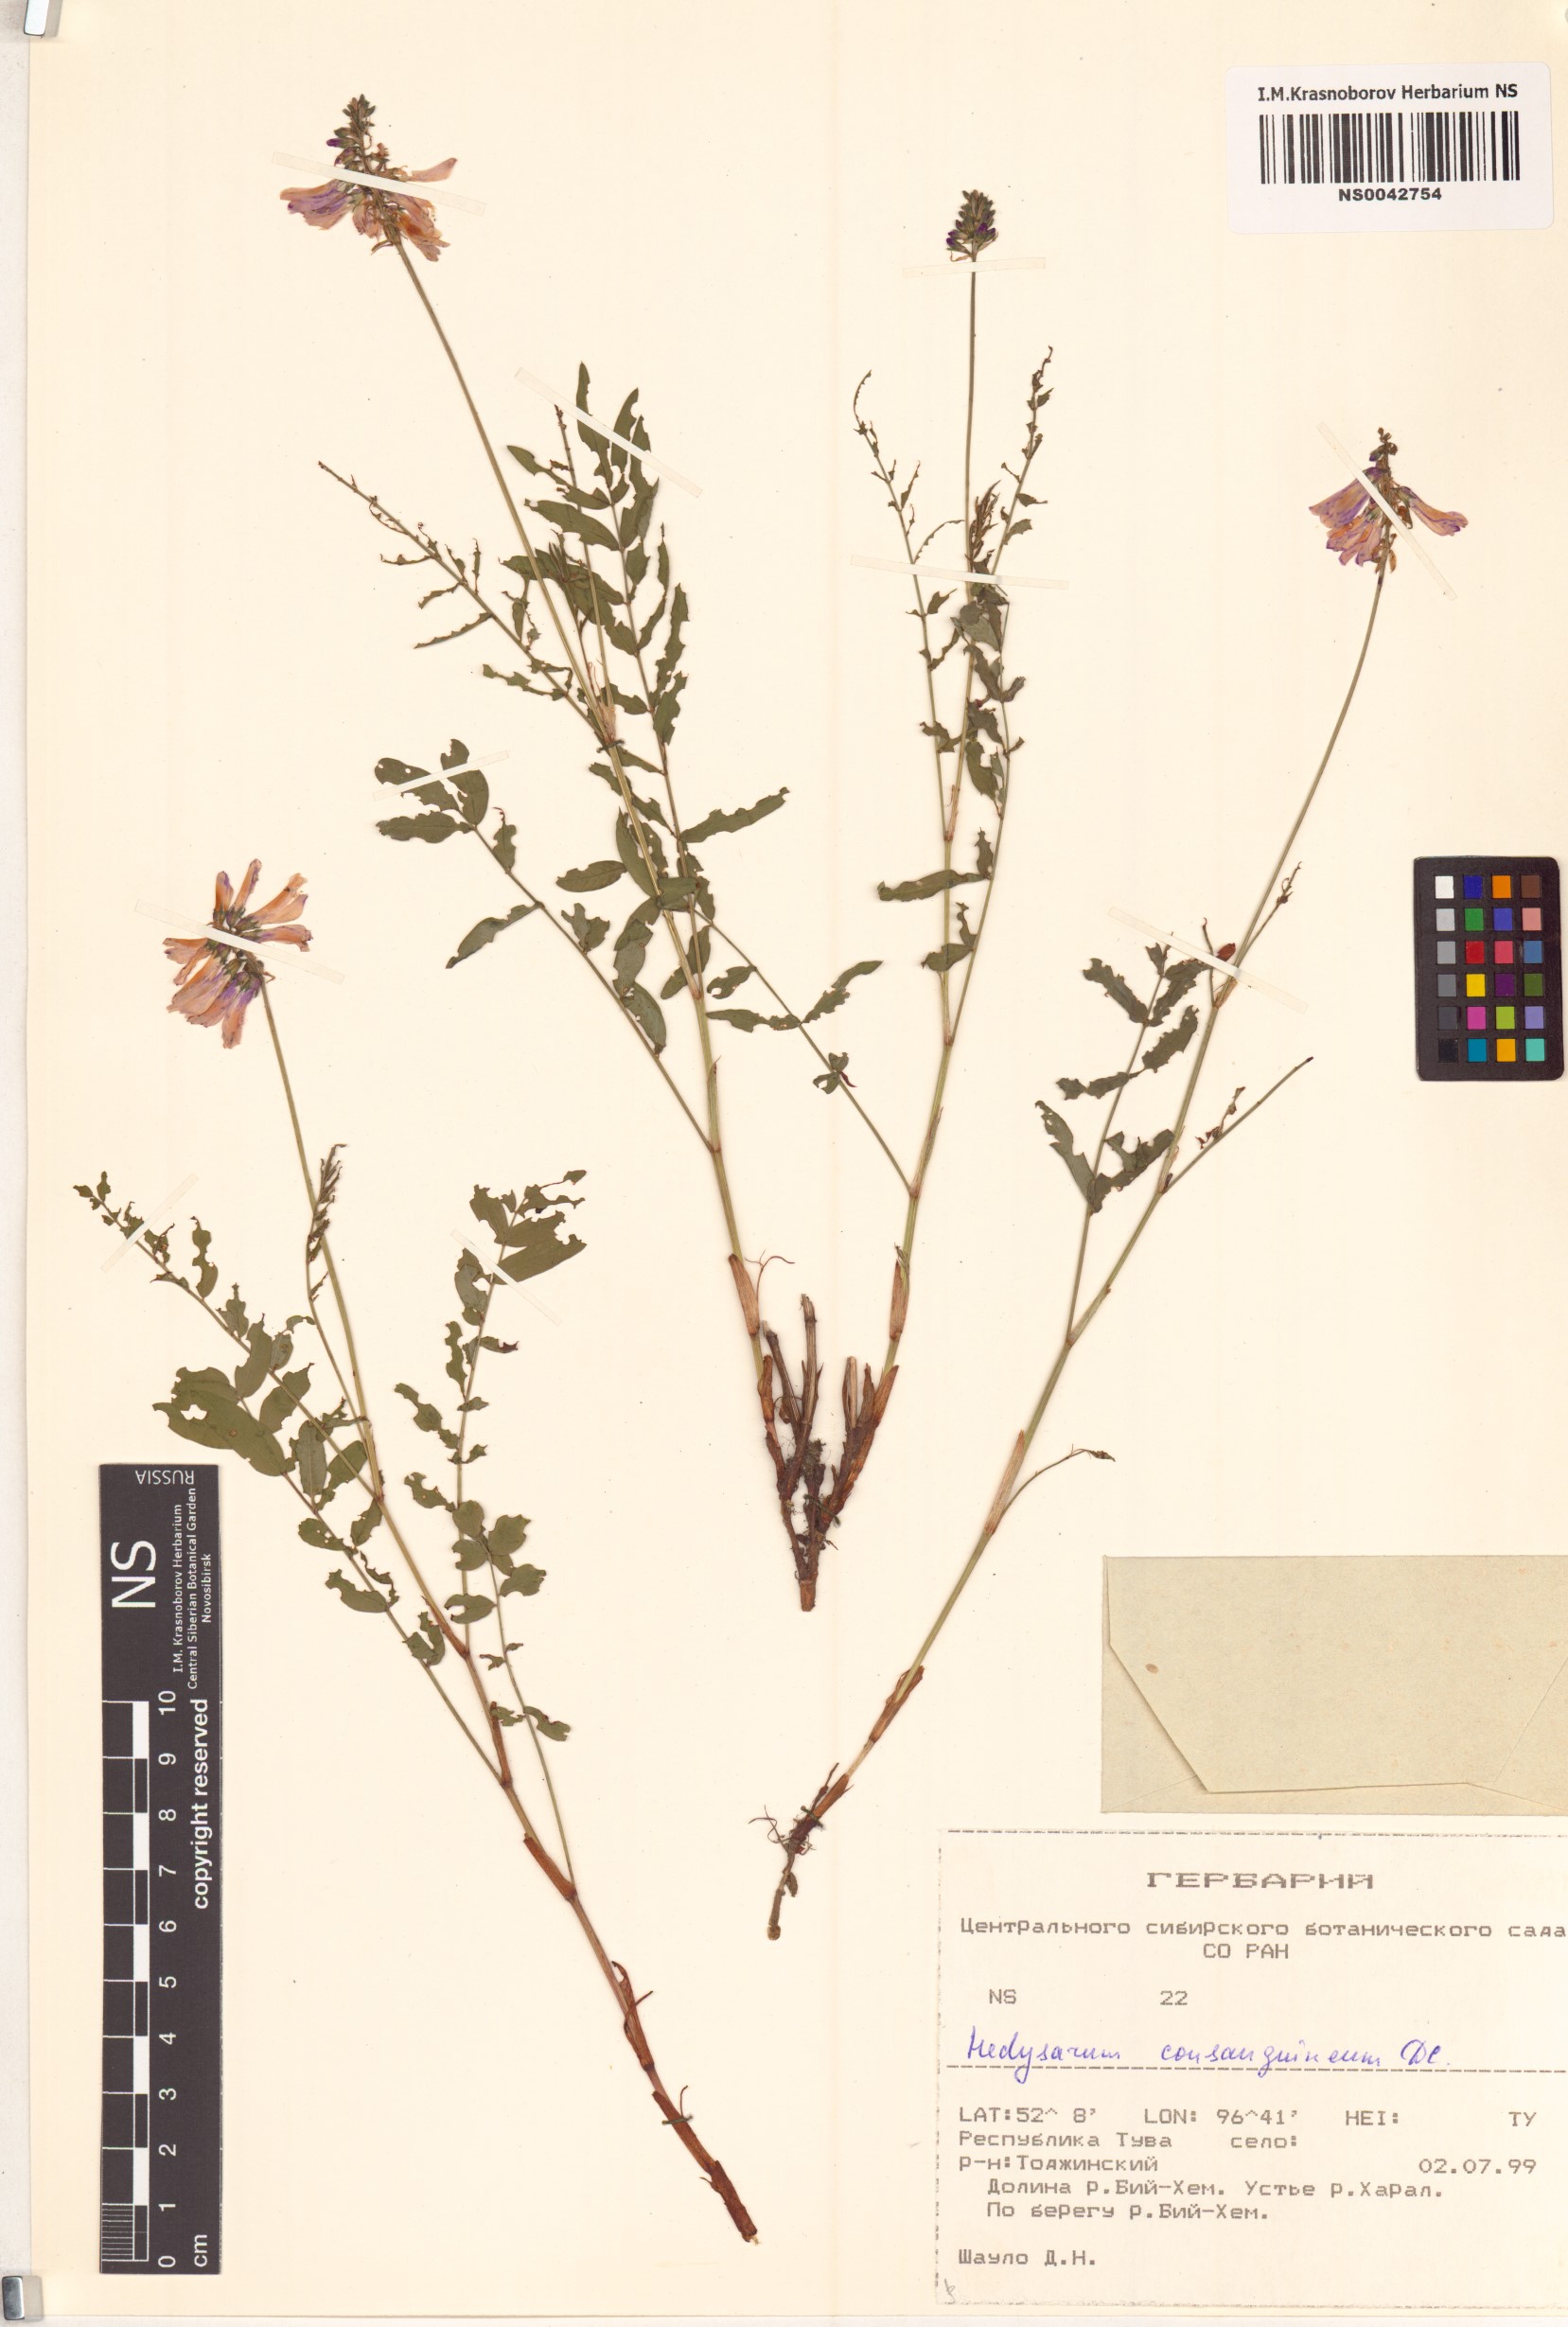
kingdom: Plantae
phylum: Tracheophyta
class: Magnoliopsida
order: Fabales
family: Fabaceae
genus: Hedysarum
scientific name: Hedysarum consanguineum
